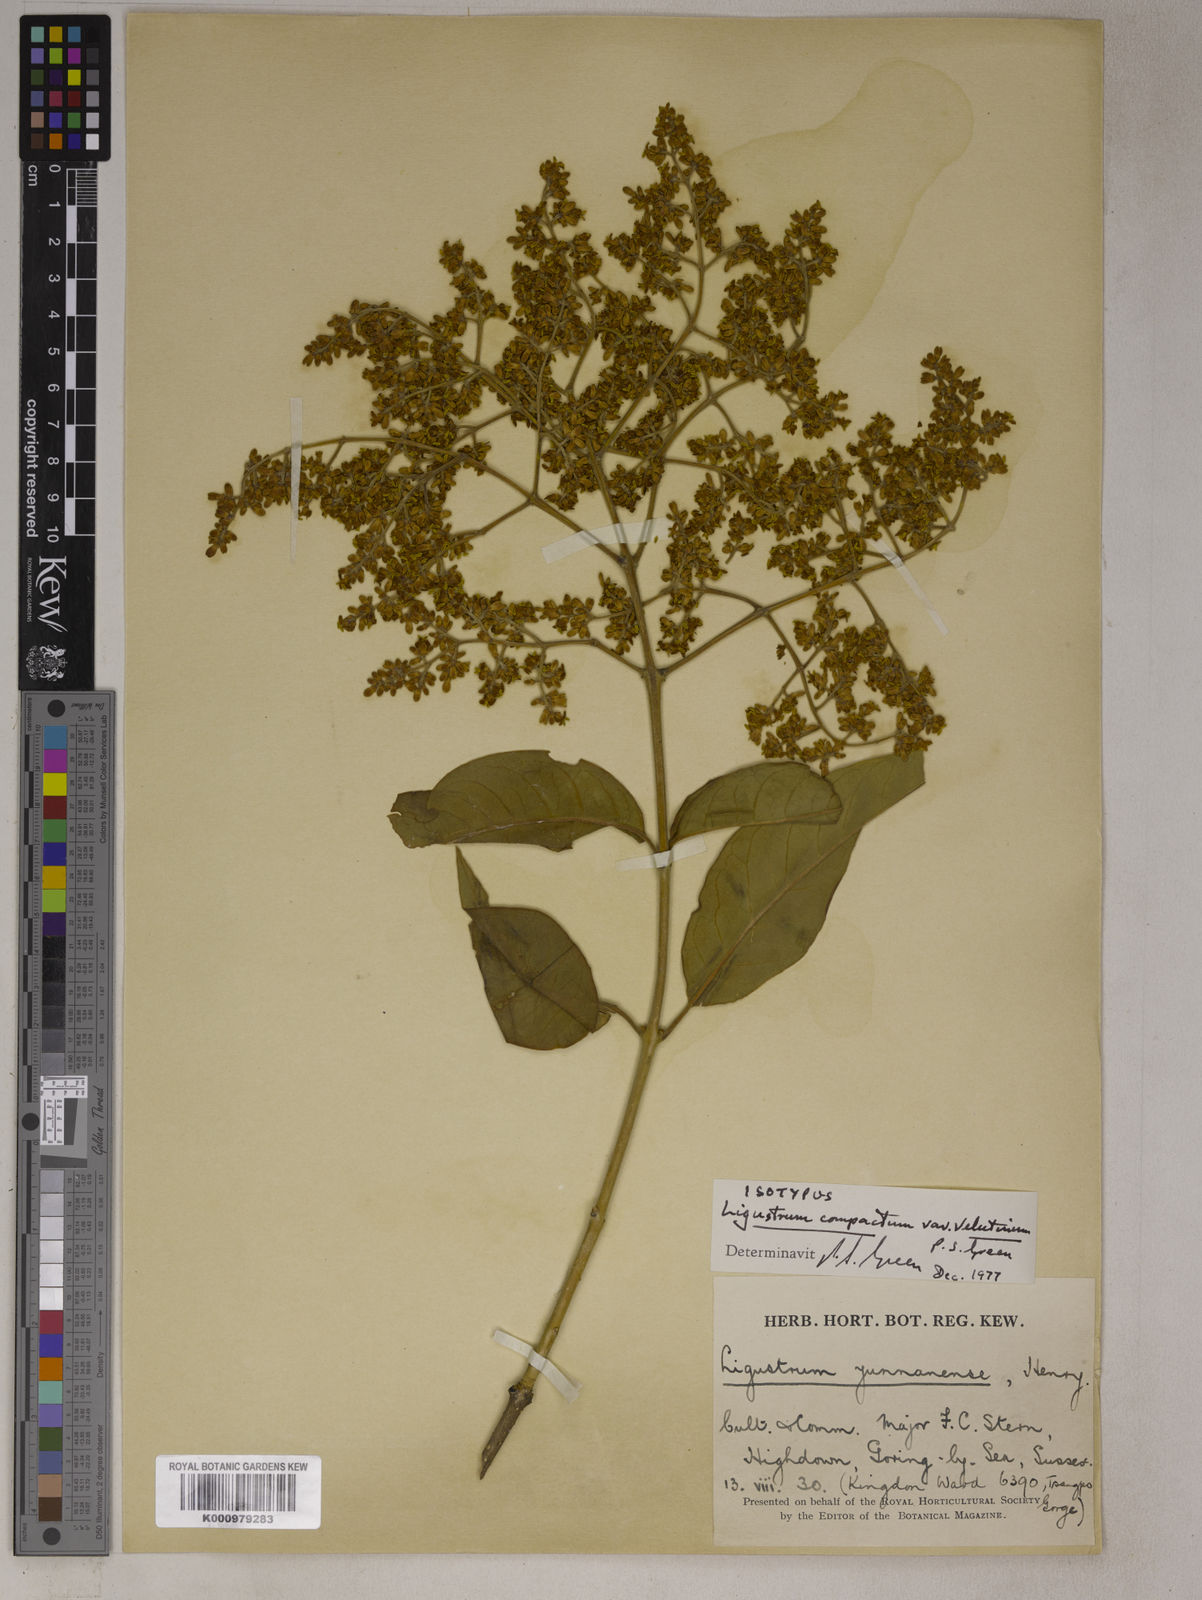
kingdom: Plantae
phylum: Tracheophyta
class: Magnoliopsida
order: Lamiales
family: Oleaceae
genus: Ligustrum
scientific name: Ligustrum compactum
